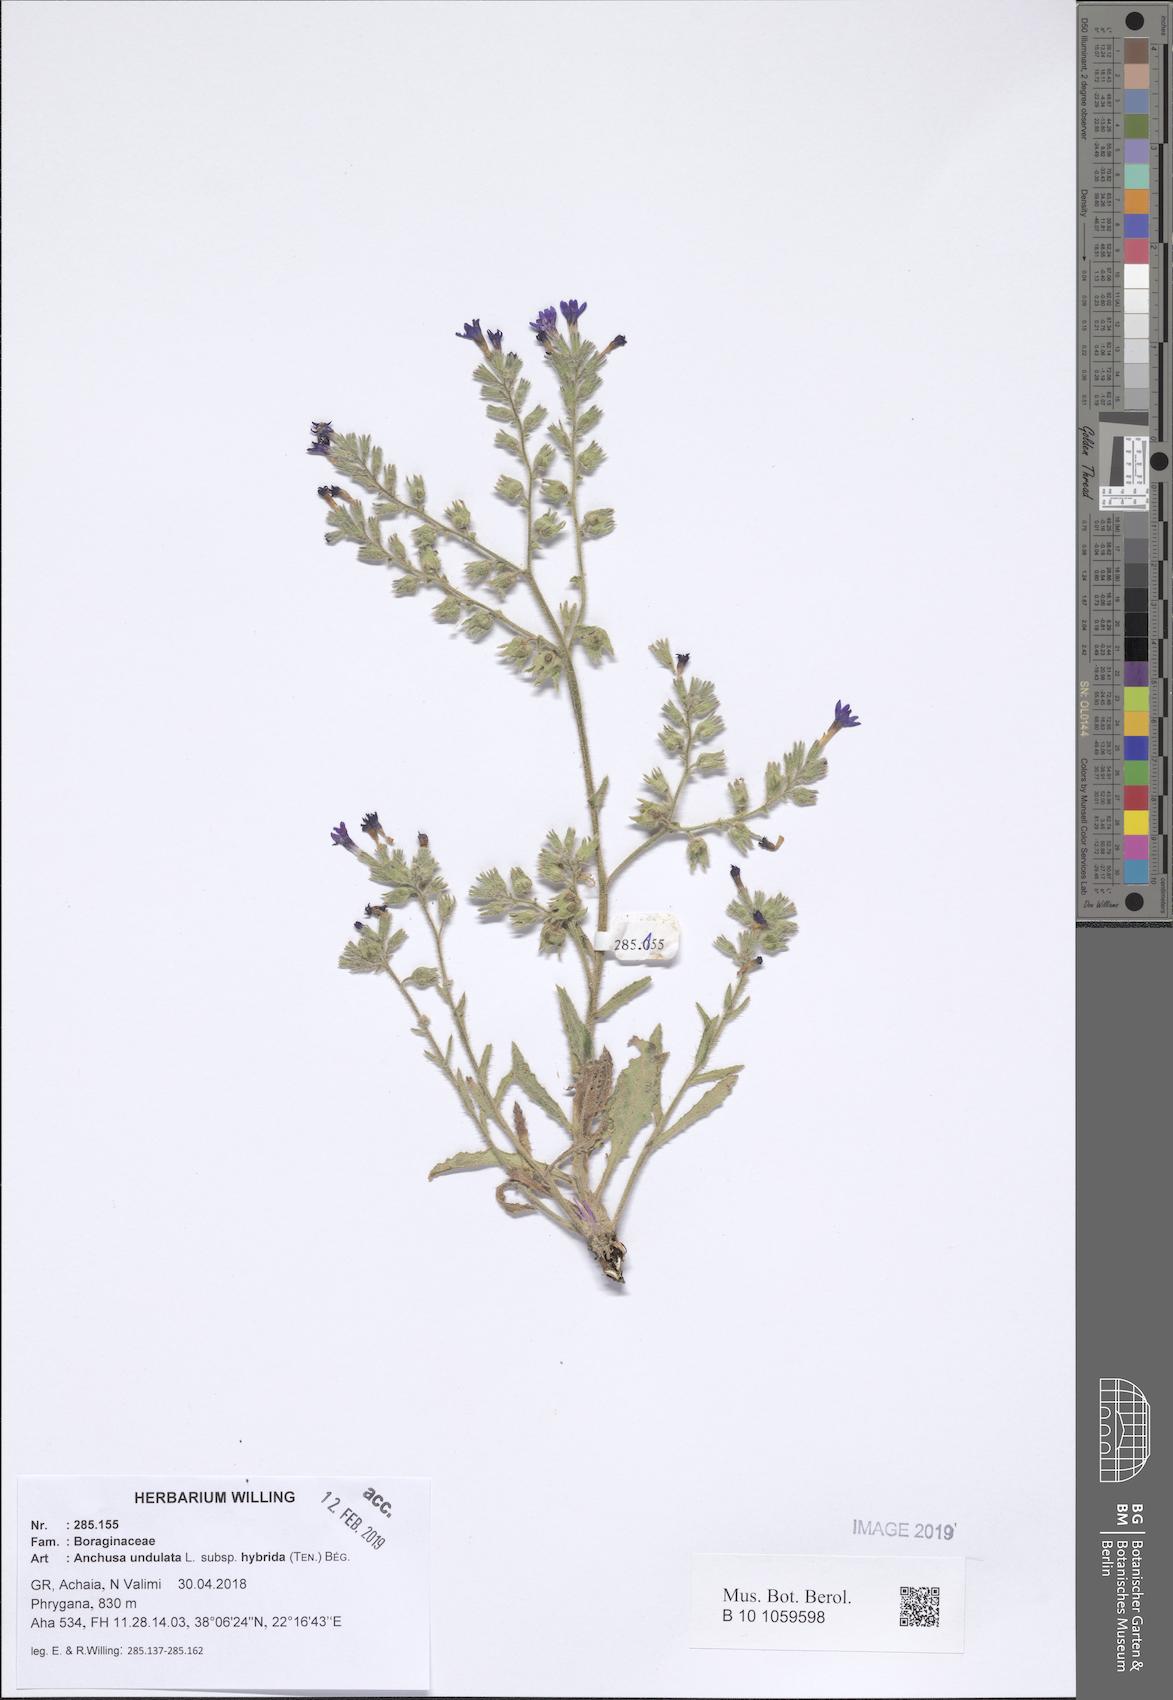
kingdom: Plantae
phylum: Tracheophyta
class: Magnoliopsida
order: Boraginales
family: Boraginaceae
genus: Anchusa
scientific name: Anchusa undulata
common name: Undulate alkanet
